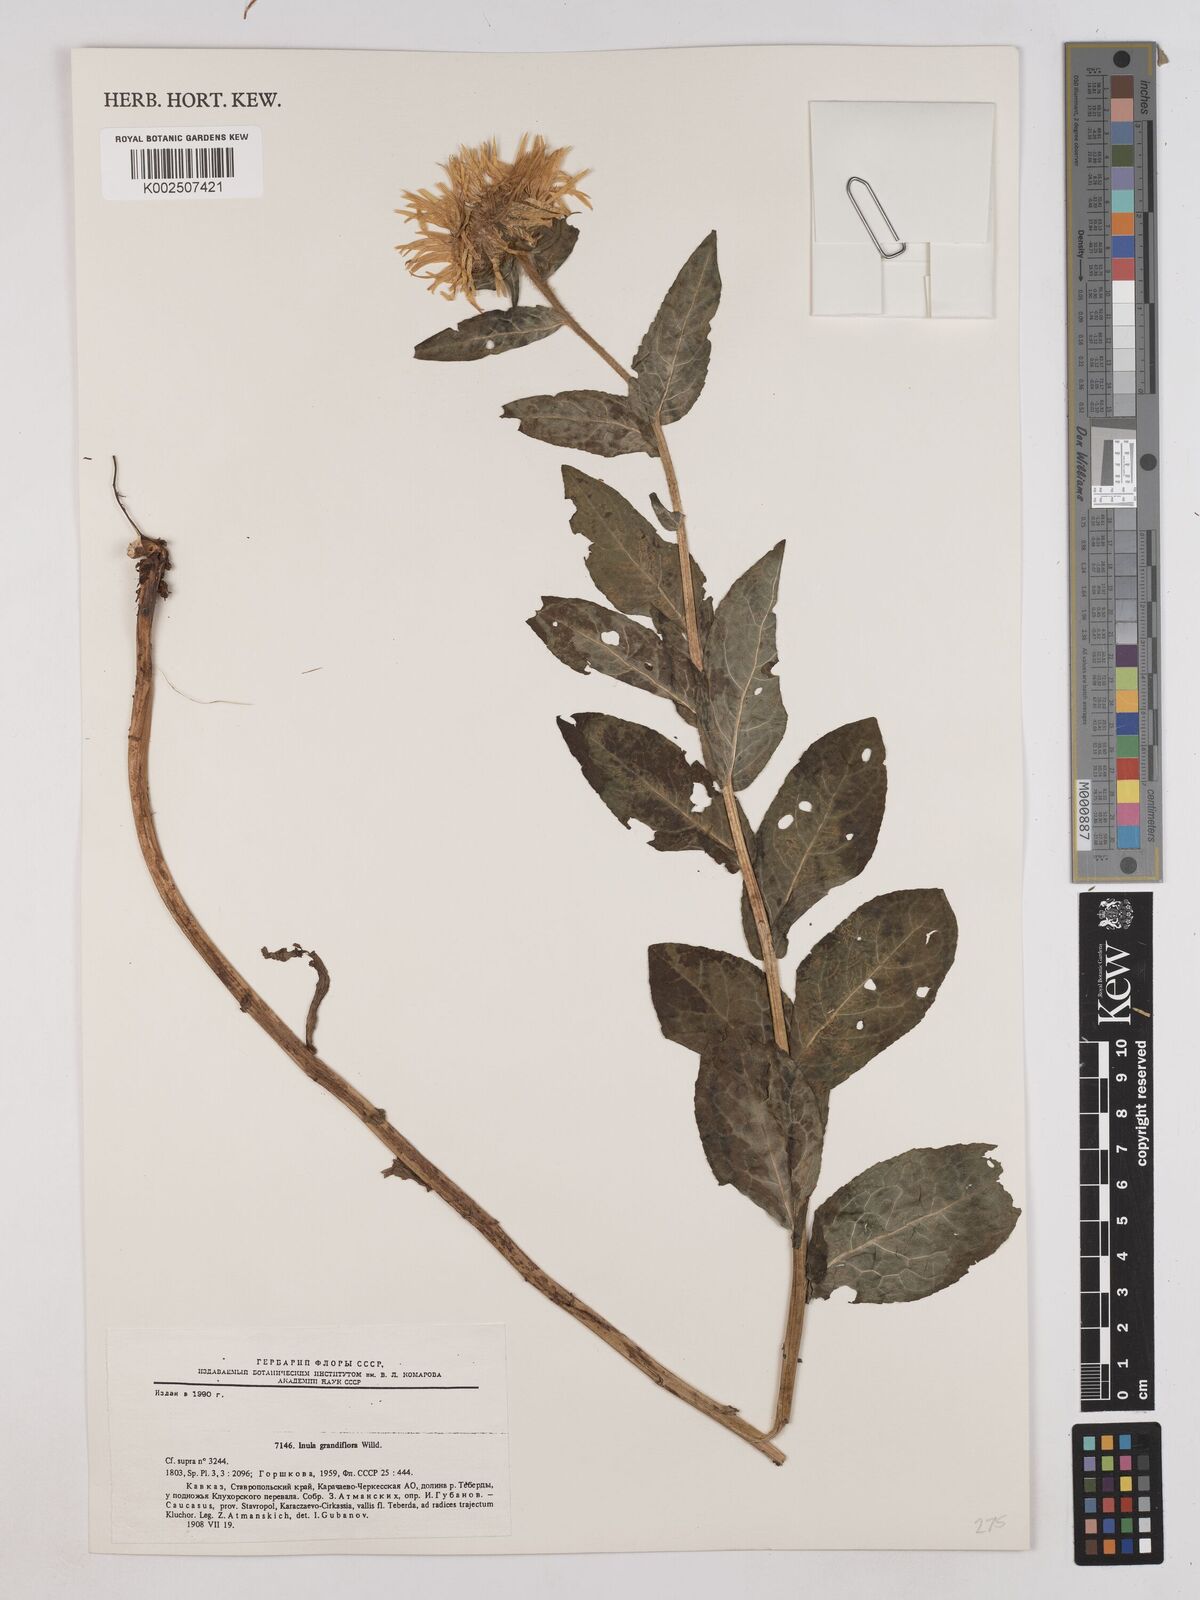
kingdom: Plantae
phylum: Tracheophyta
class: Magnoliopsida
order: Asterales
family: Asteraceae
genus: Pentanema
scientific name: Pentanema orientale
